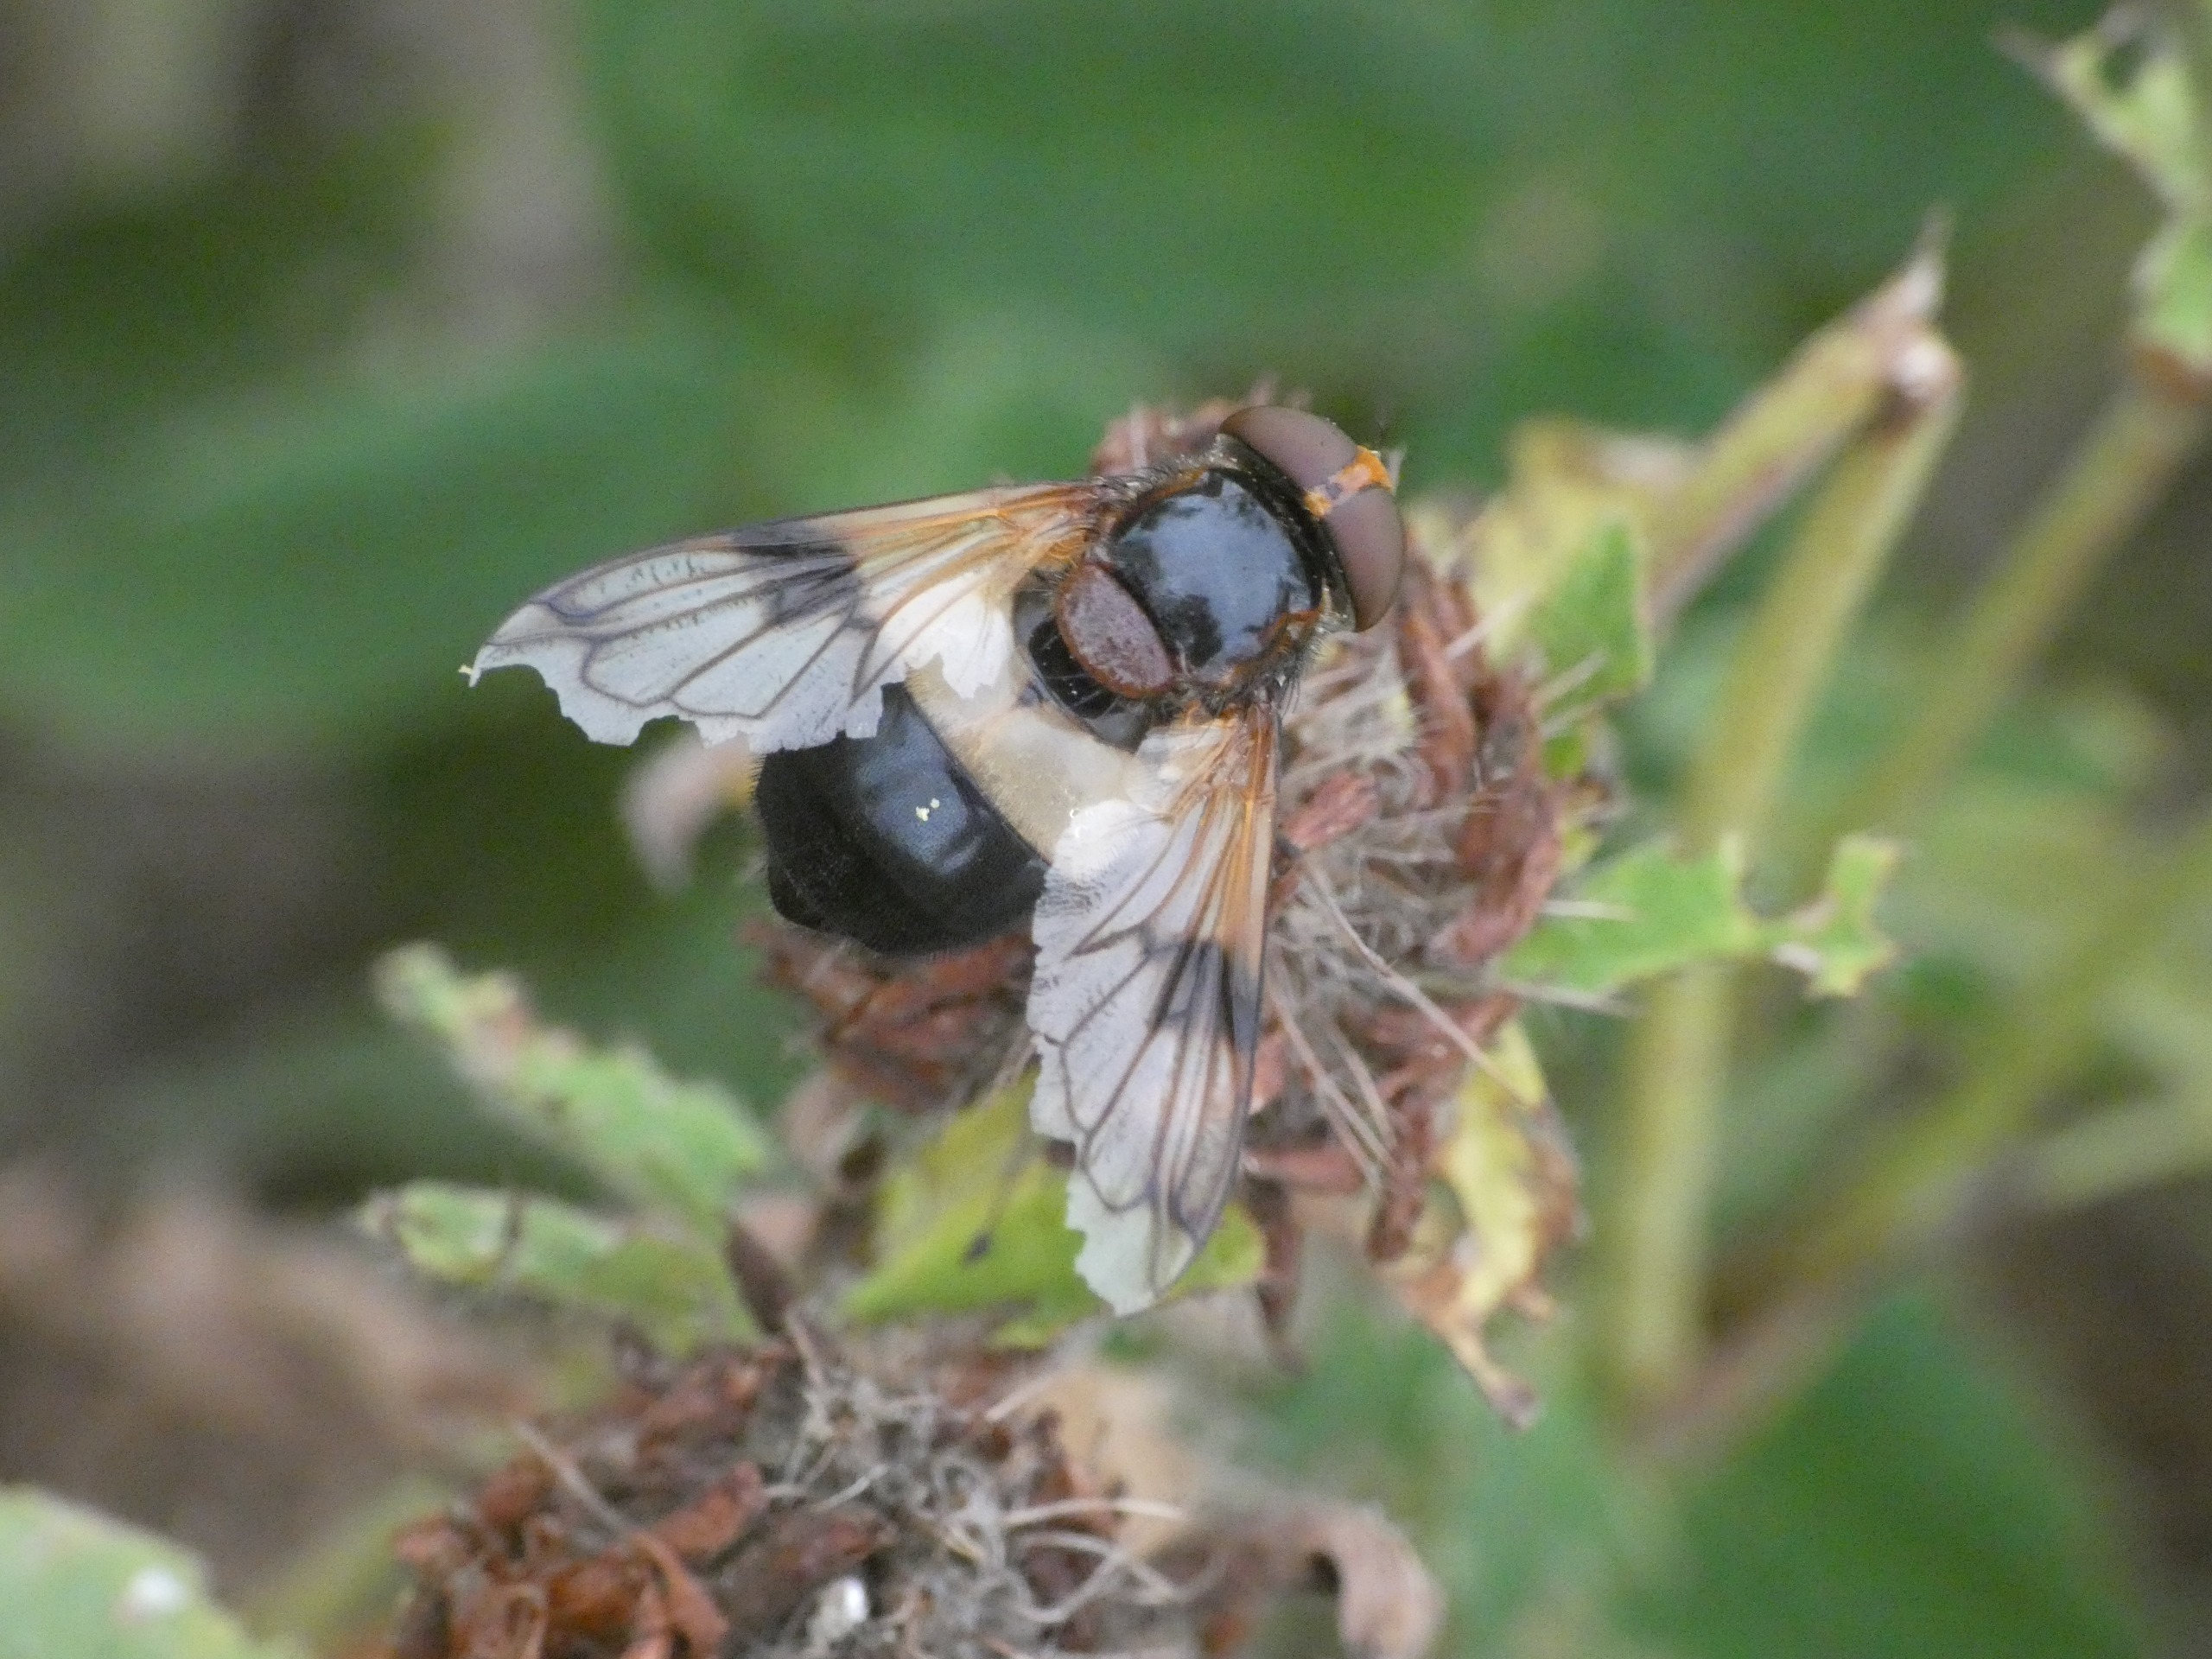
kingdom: Animalia
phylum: Arthropoda
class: Insecta
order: Diptera
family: Syrphidae
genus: Volucella
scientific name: Volucella pellucens
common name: Hvidbåndet humlesvirreflue
